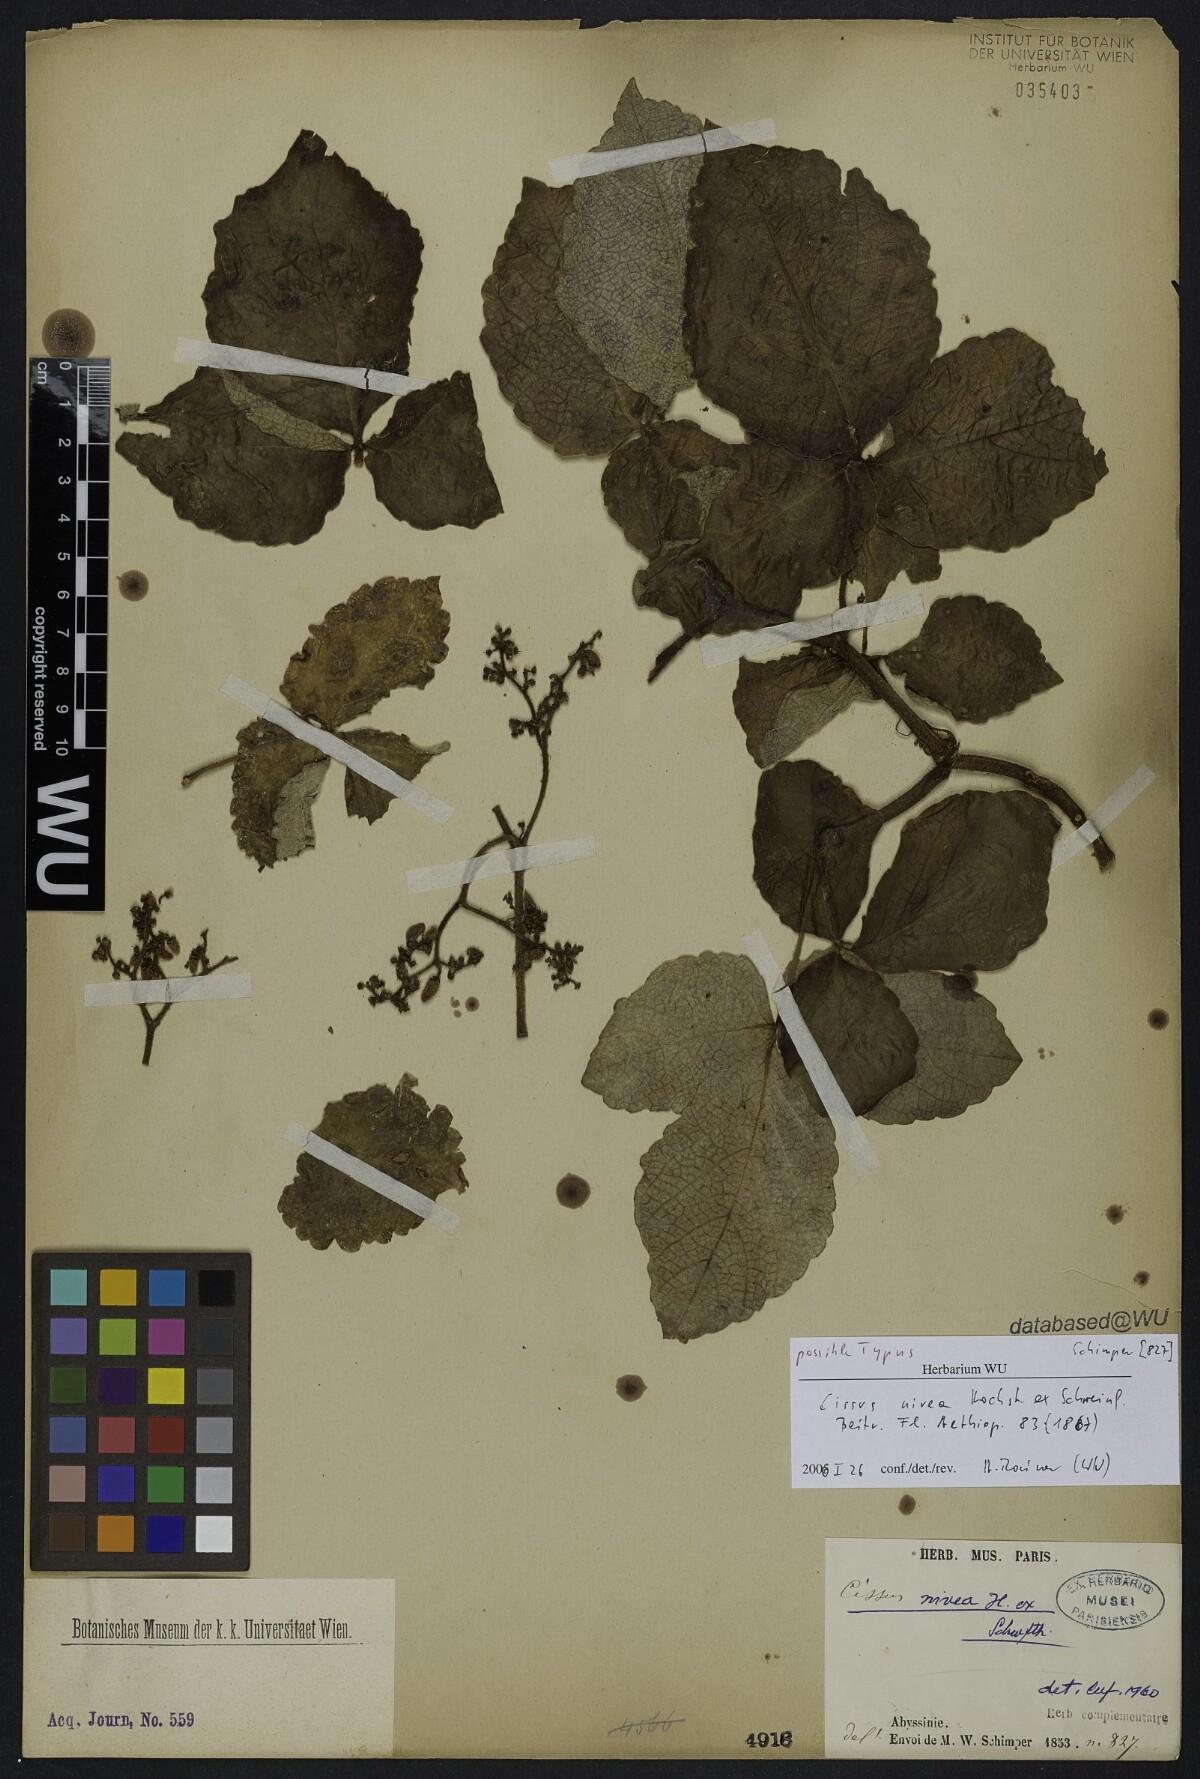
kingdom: Plantae
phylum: Tracheophyta
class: Magnoliopsida
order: Vitales
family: Vitaceae
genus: Cyphostemma
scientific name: Cyphostemma niveum
